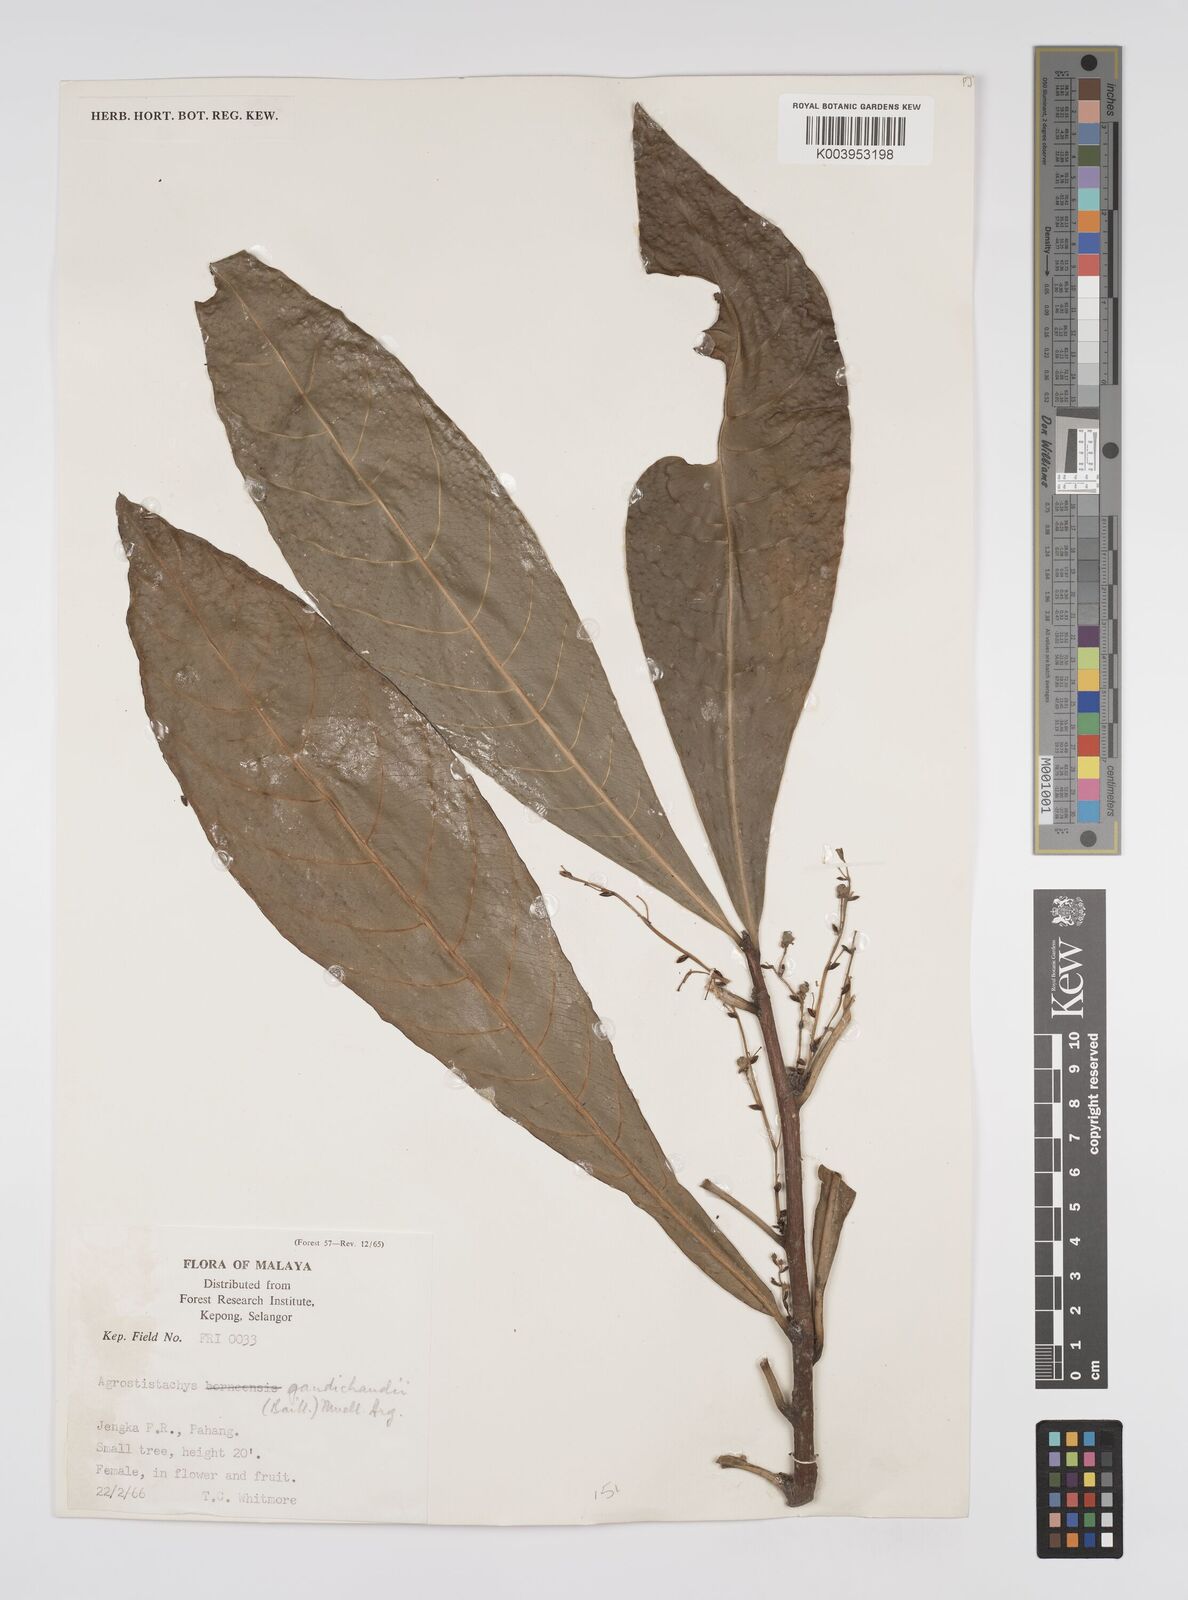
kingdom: Plantae
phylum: Tracheophyta
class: Magnoliopsida
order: Malpighiales
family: Euphorbiaceae
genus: Agrostistachys
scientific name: Agrostistachys gaudichaudii
